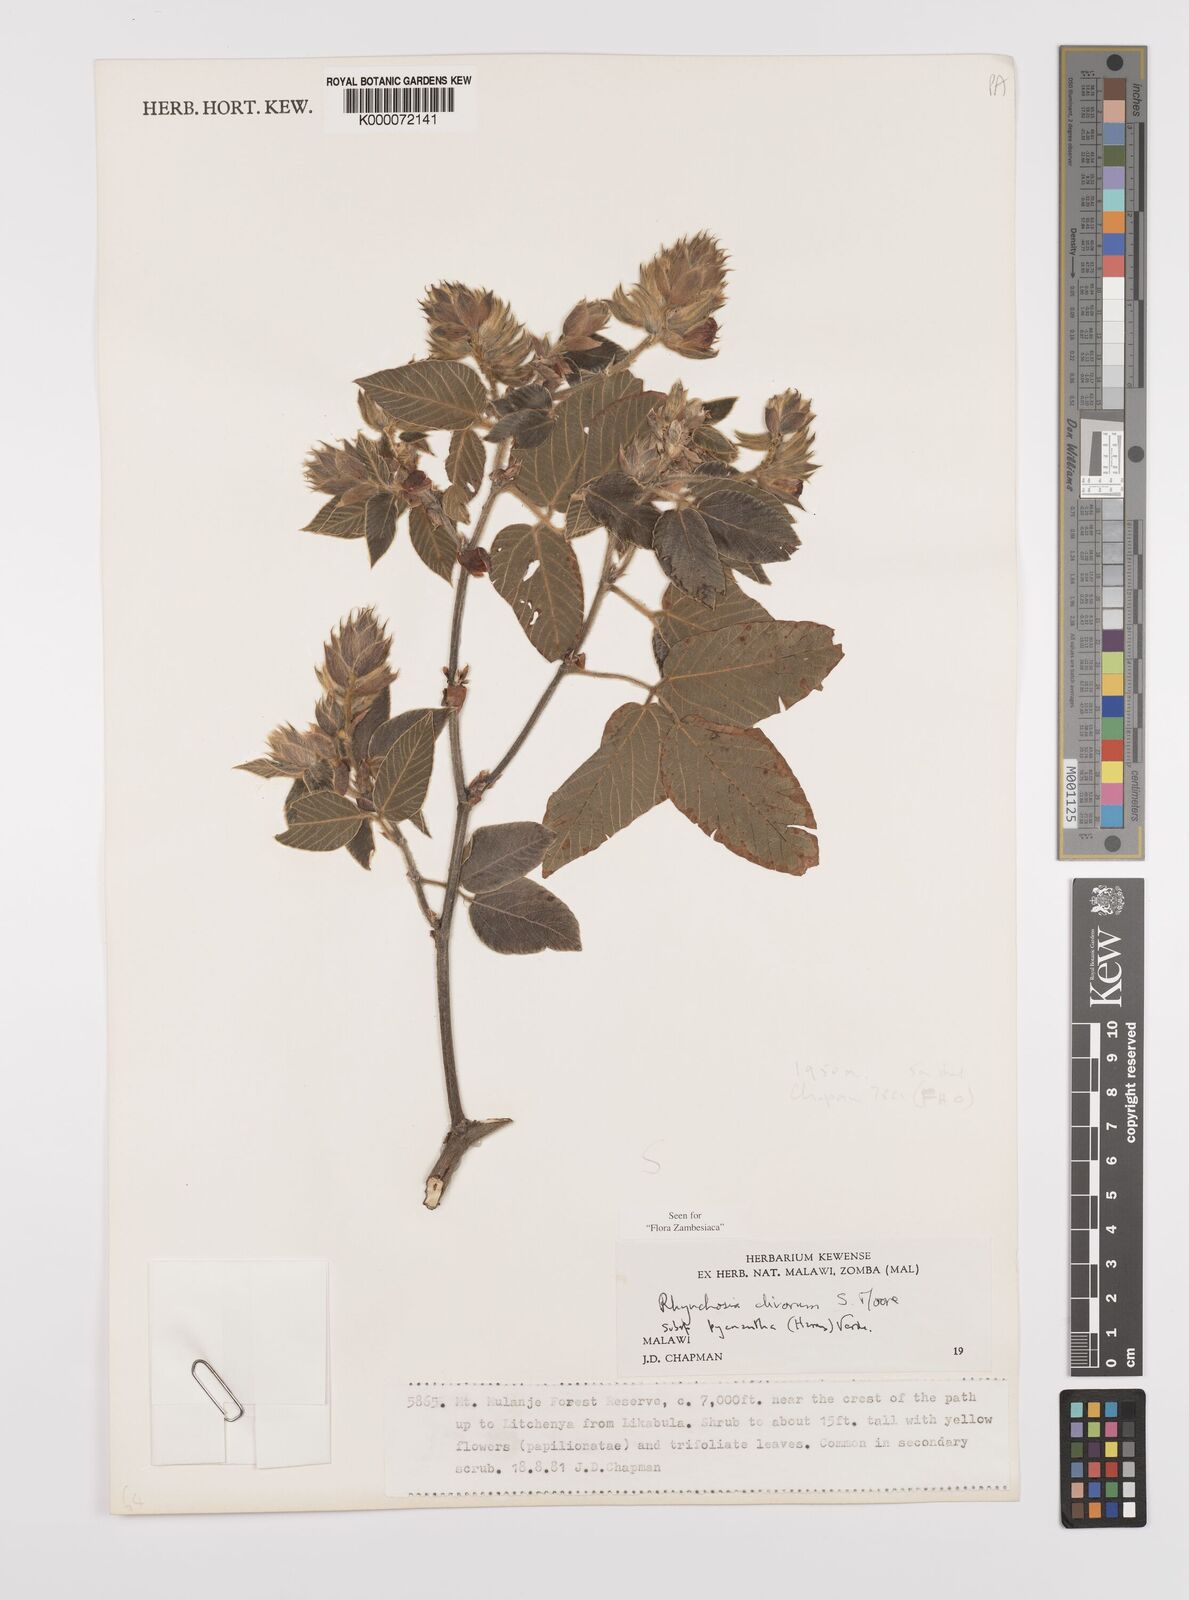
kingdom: Plantae
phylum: Tracheophyta
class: Magnoliopsida
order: Fabales
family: Fabaceae
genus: Rhynchosia
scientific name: Rhynchosia clivorum
